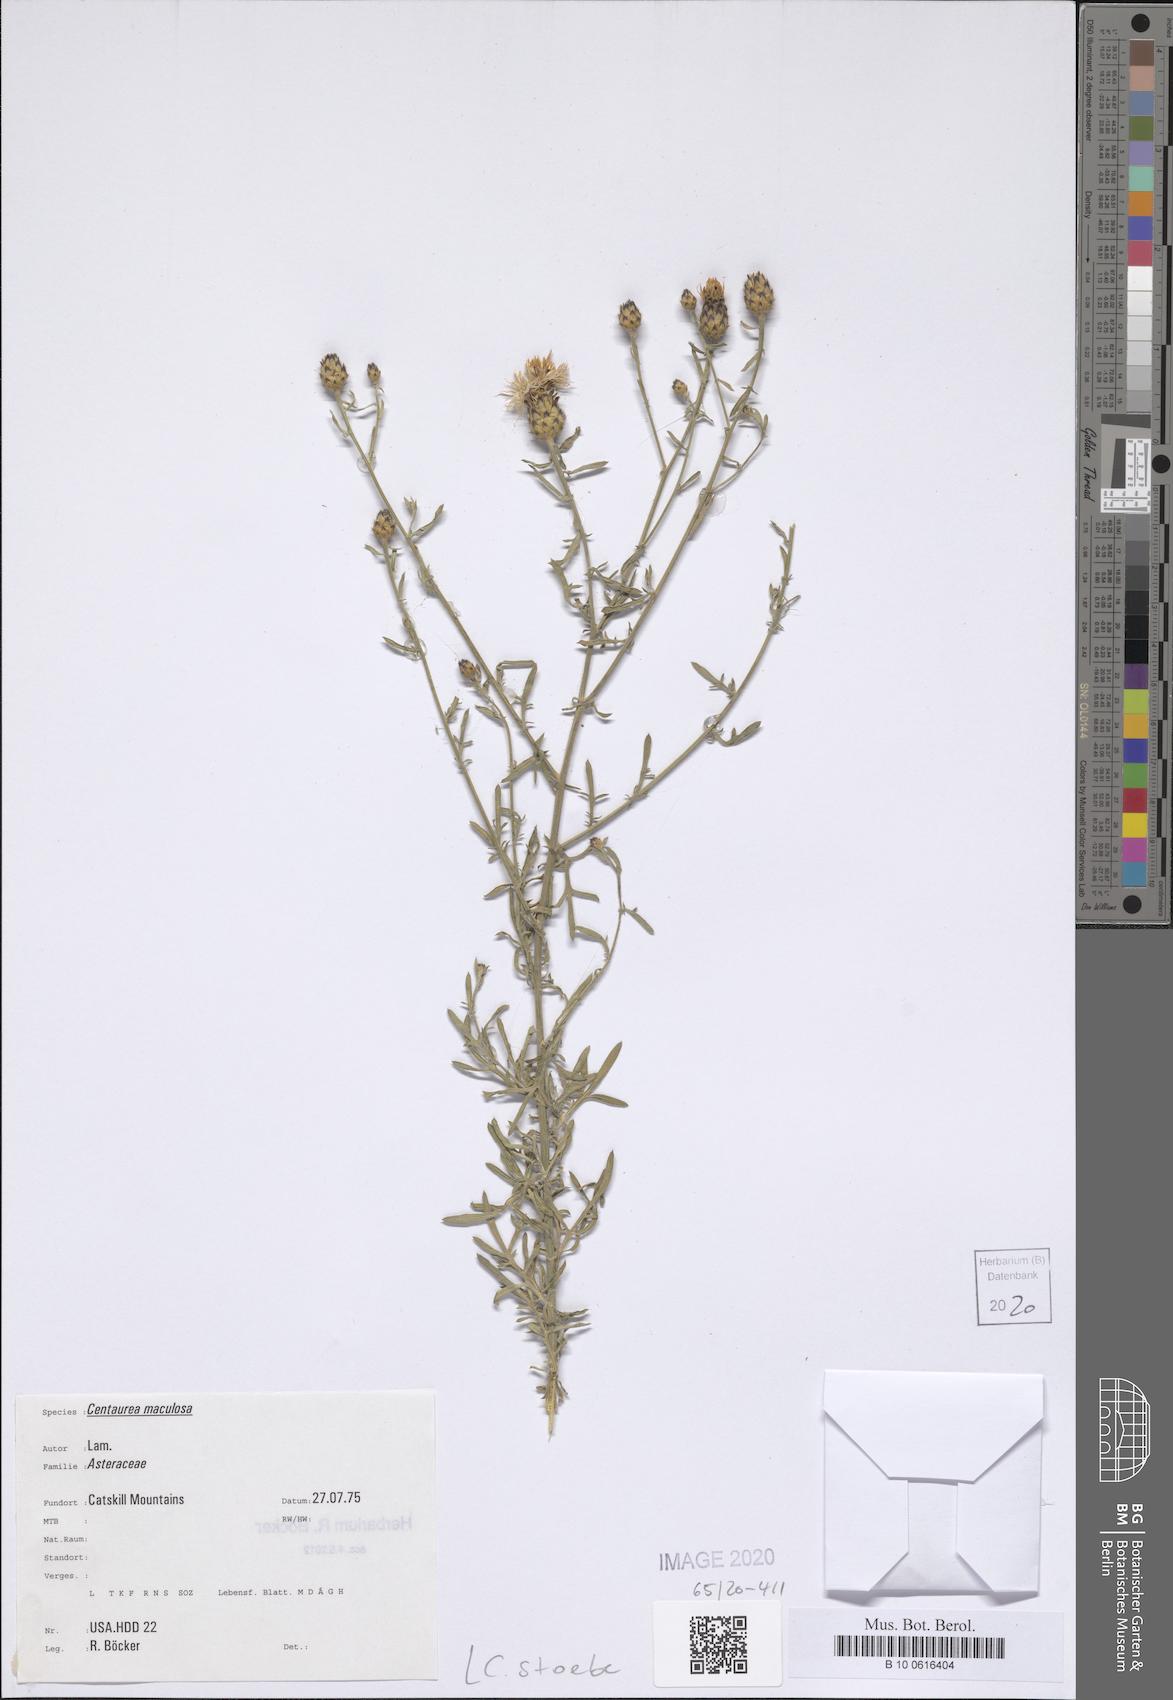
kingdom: Plantae
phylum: Tracheophyta
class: Magnoliopsida
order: Asterales
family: Asteraceae
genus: Centaurea
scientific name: Centaurea stoebe
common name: Spotted knapweed
